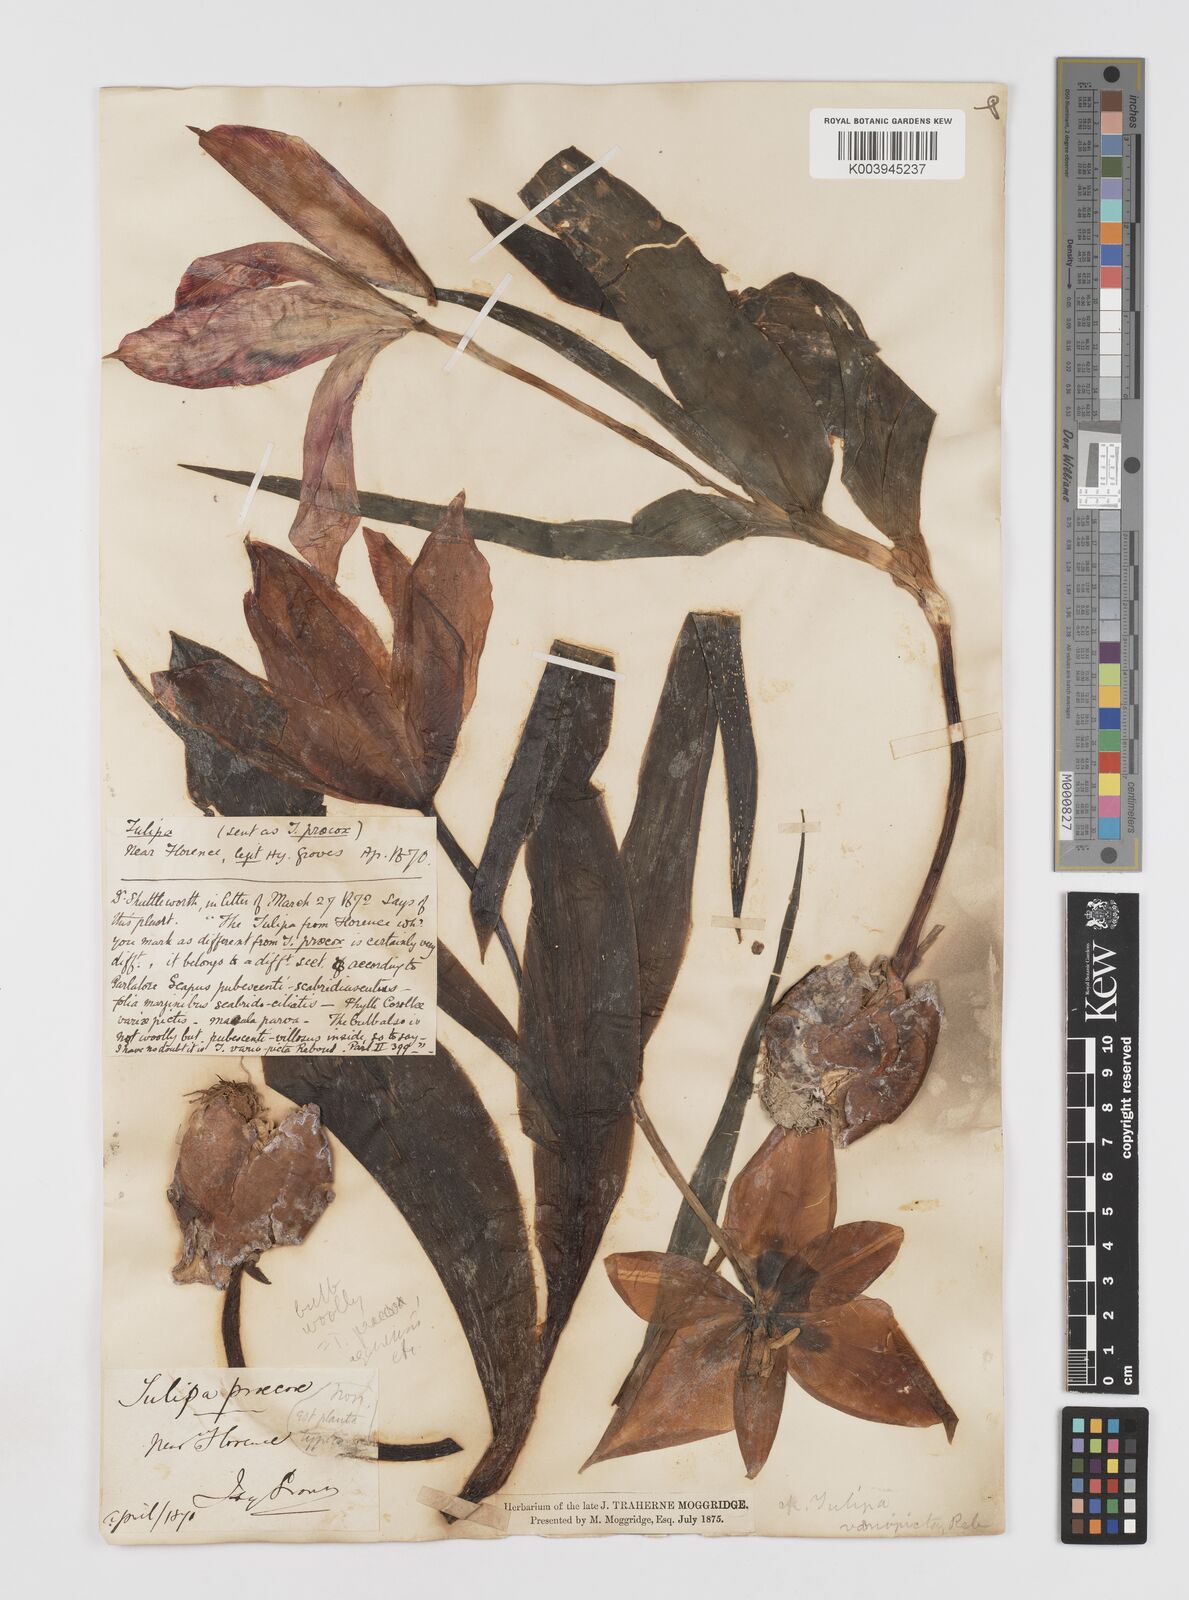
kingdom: Plantae
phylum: Tracheophyta
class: Liliopsida
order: Liliales
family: Liliaceae
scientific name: Liliaceae
